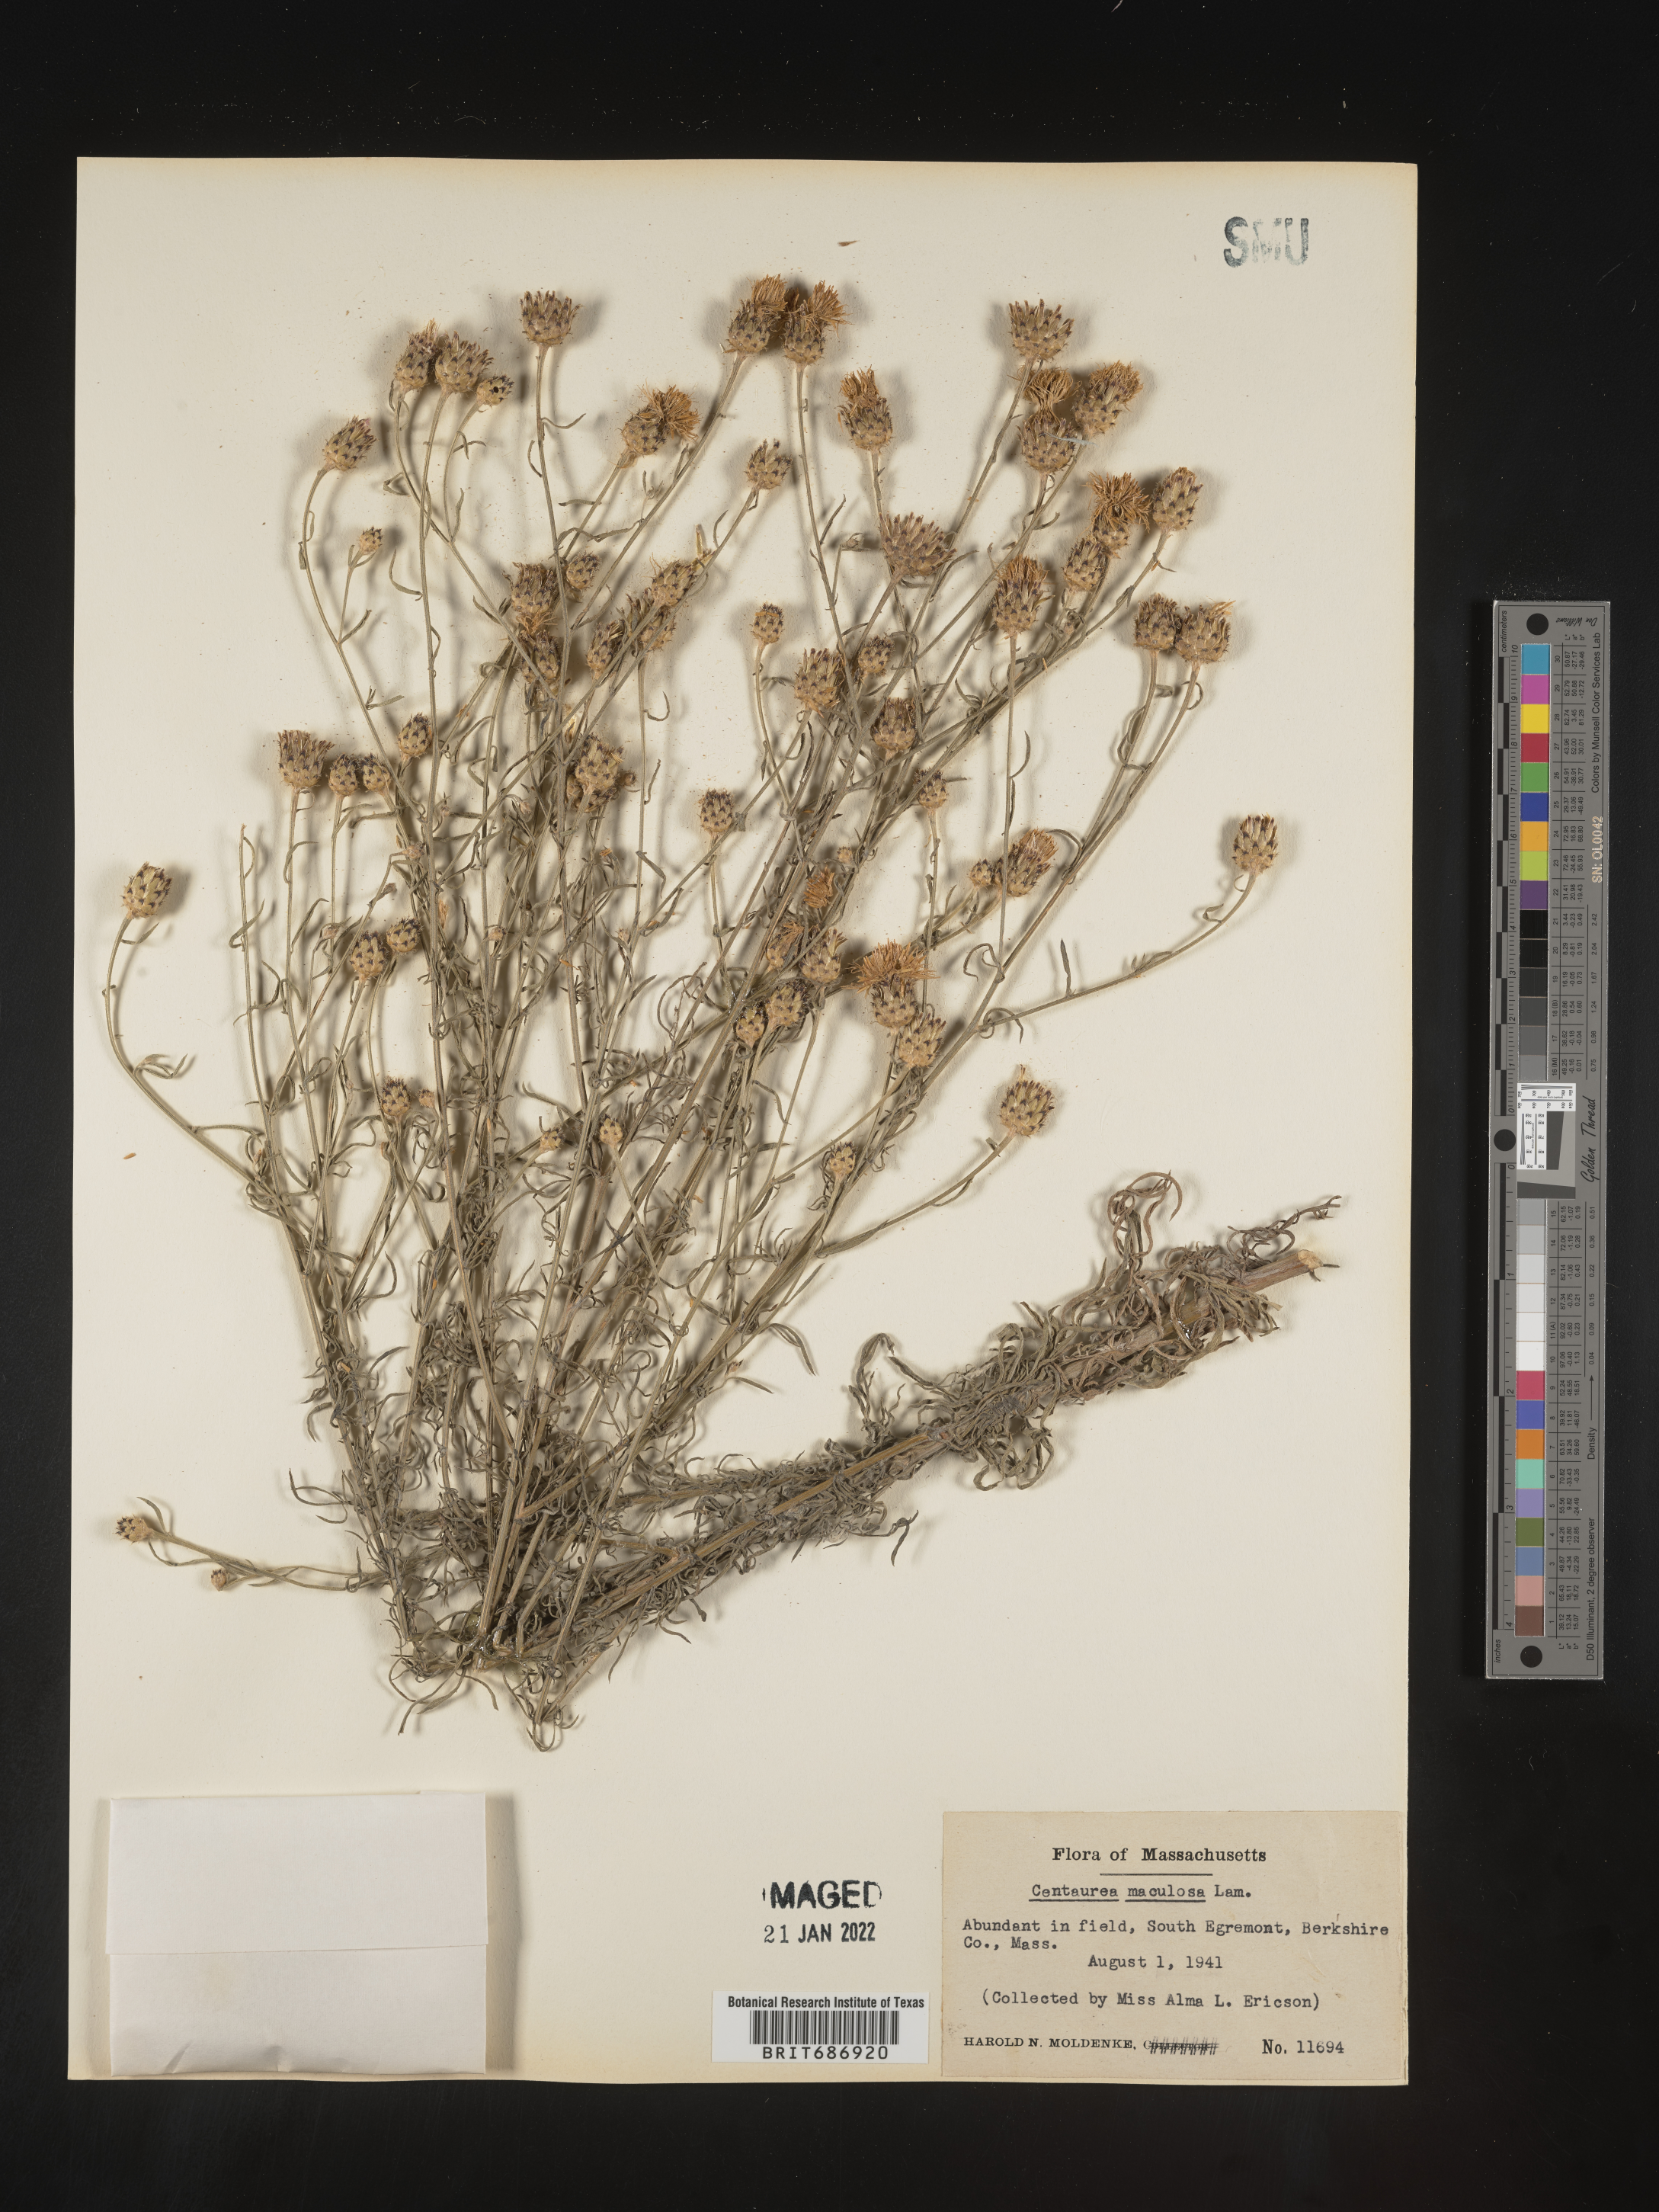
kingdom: Plantae
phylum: Tracheophyta
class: Magnoliopsida
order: Asterales
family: Asteraceae
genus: Centaurea
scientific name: Centaurea stoebe
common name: Spotted knapweed
